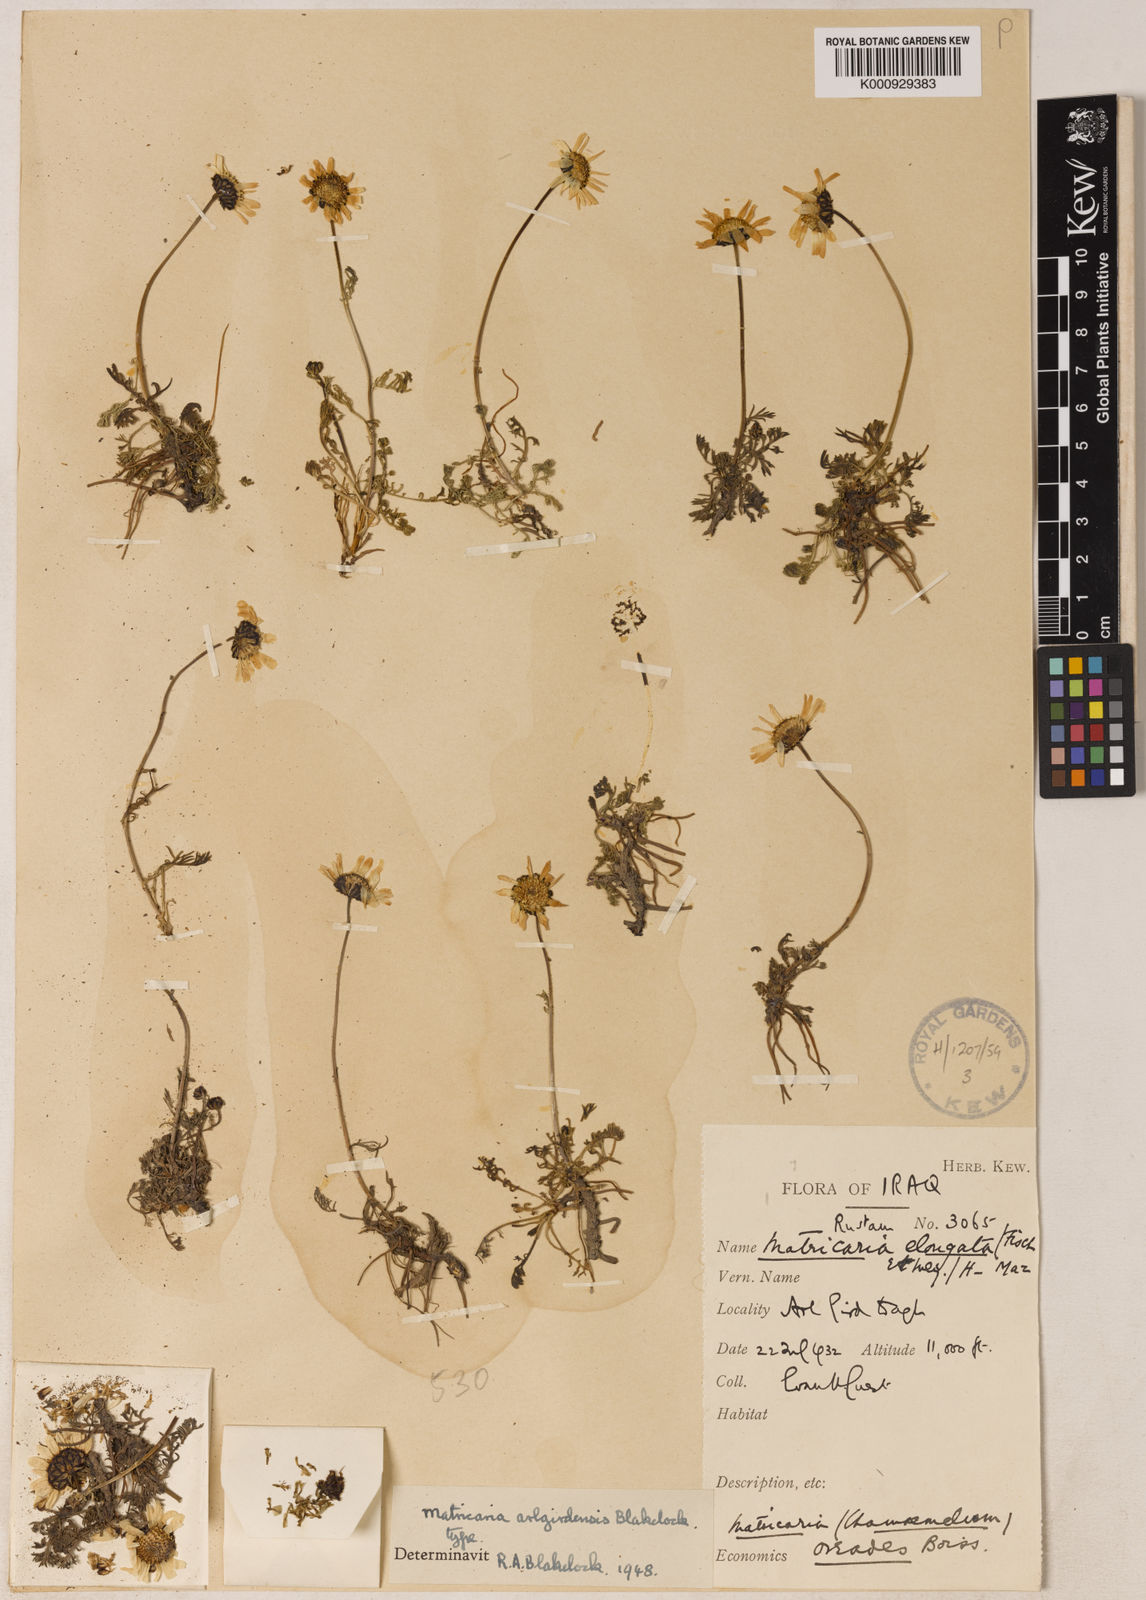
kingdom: Plantae
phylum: Tracheophyta
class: Magnoliopsida
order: Asterales
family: Asteraceae
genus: Tripleurospermum
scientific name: Tripleurospermum melanolepis
